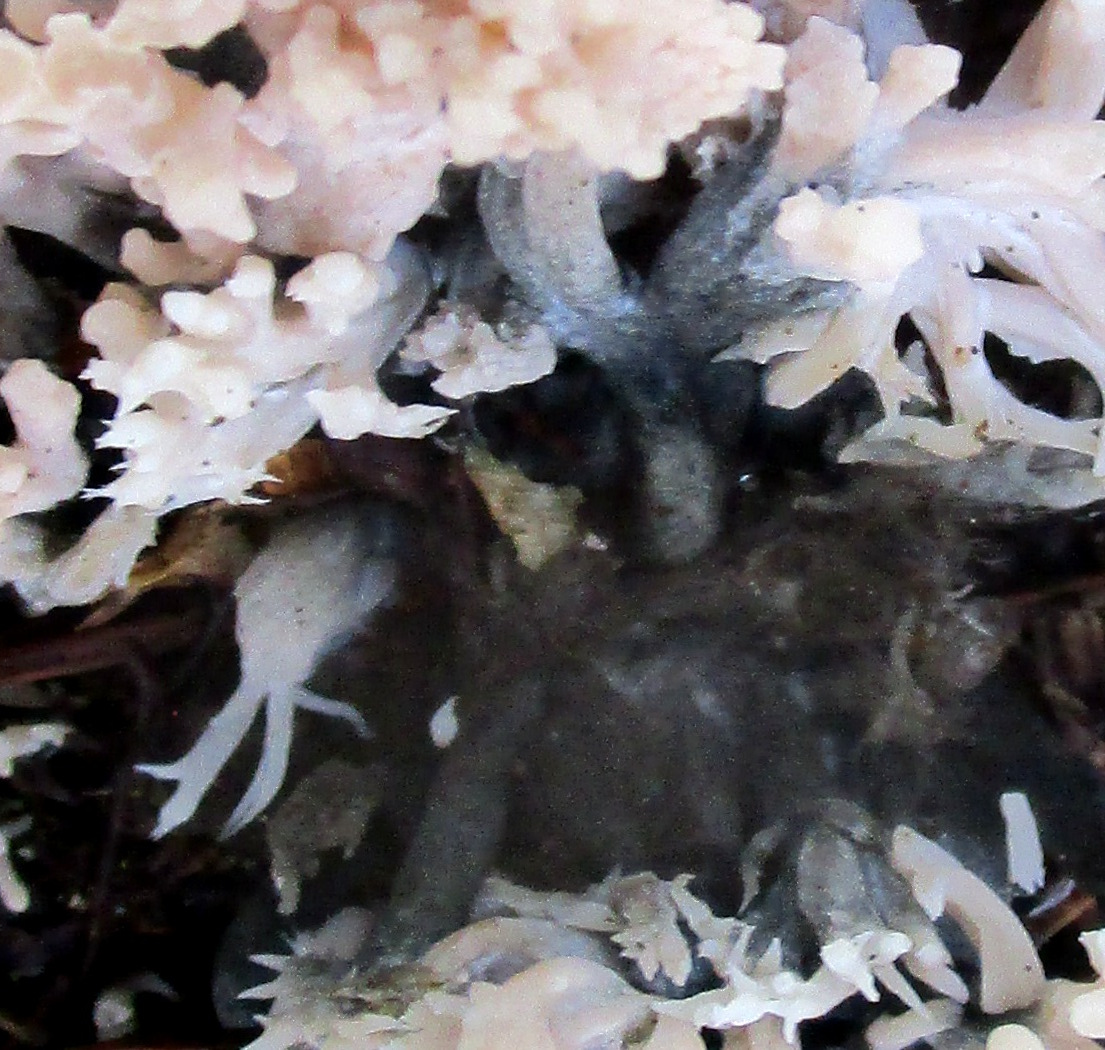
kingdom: Fungi
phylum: Ascomycota
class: Sordariomycetes
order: Sordariales
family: Helminthosphaeriaceae
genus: Helminthosphaeria
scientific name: Helminthosphaeria clavariarum
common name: trold-svampesnyltekerne
